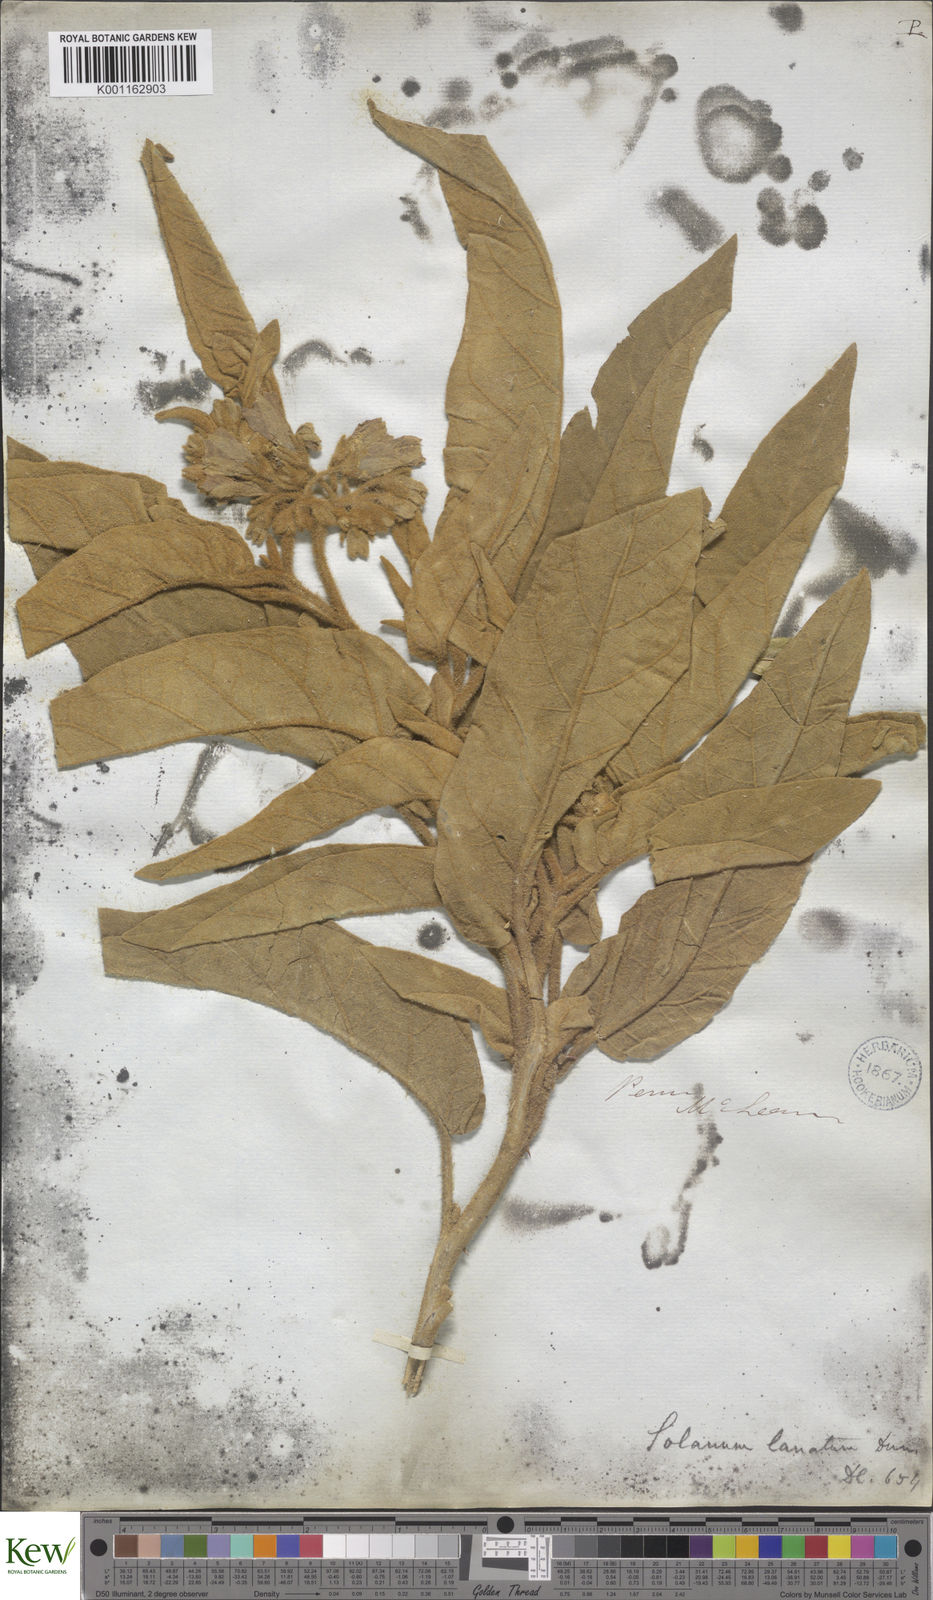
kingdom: Plantae
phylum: Tracheophyta
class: Magnoliopsida
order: Solanales
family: Solanaceae
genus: Solanum
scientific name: Solanum asperolanatum
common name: Devil's-fig
